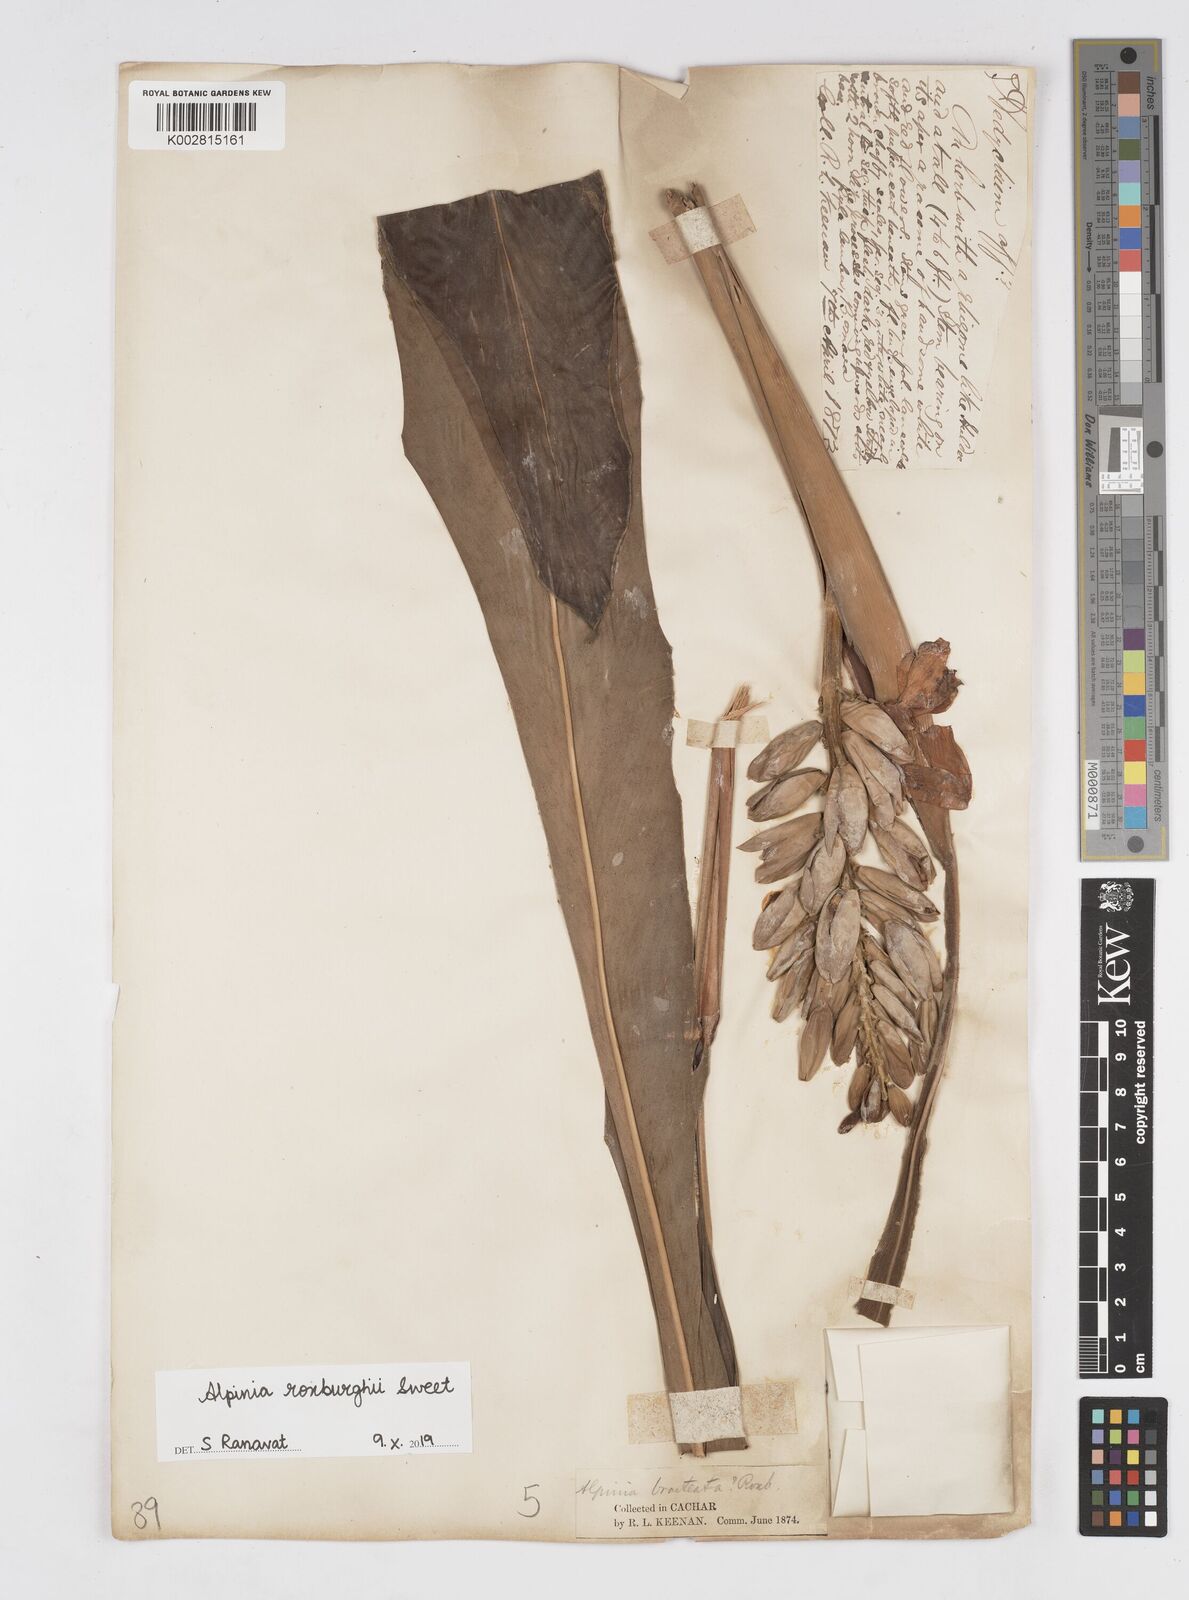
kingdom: Plantae
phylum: Tracheophyta
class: Liliopsida
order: Zingiberales
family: Zingiberaceae
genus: Alpinia
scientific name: Alpinia roxburghii
